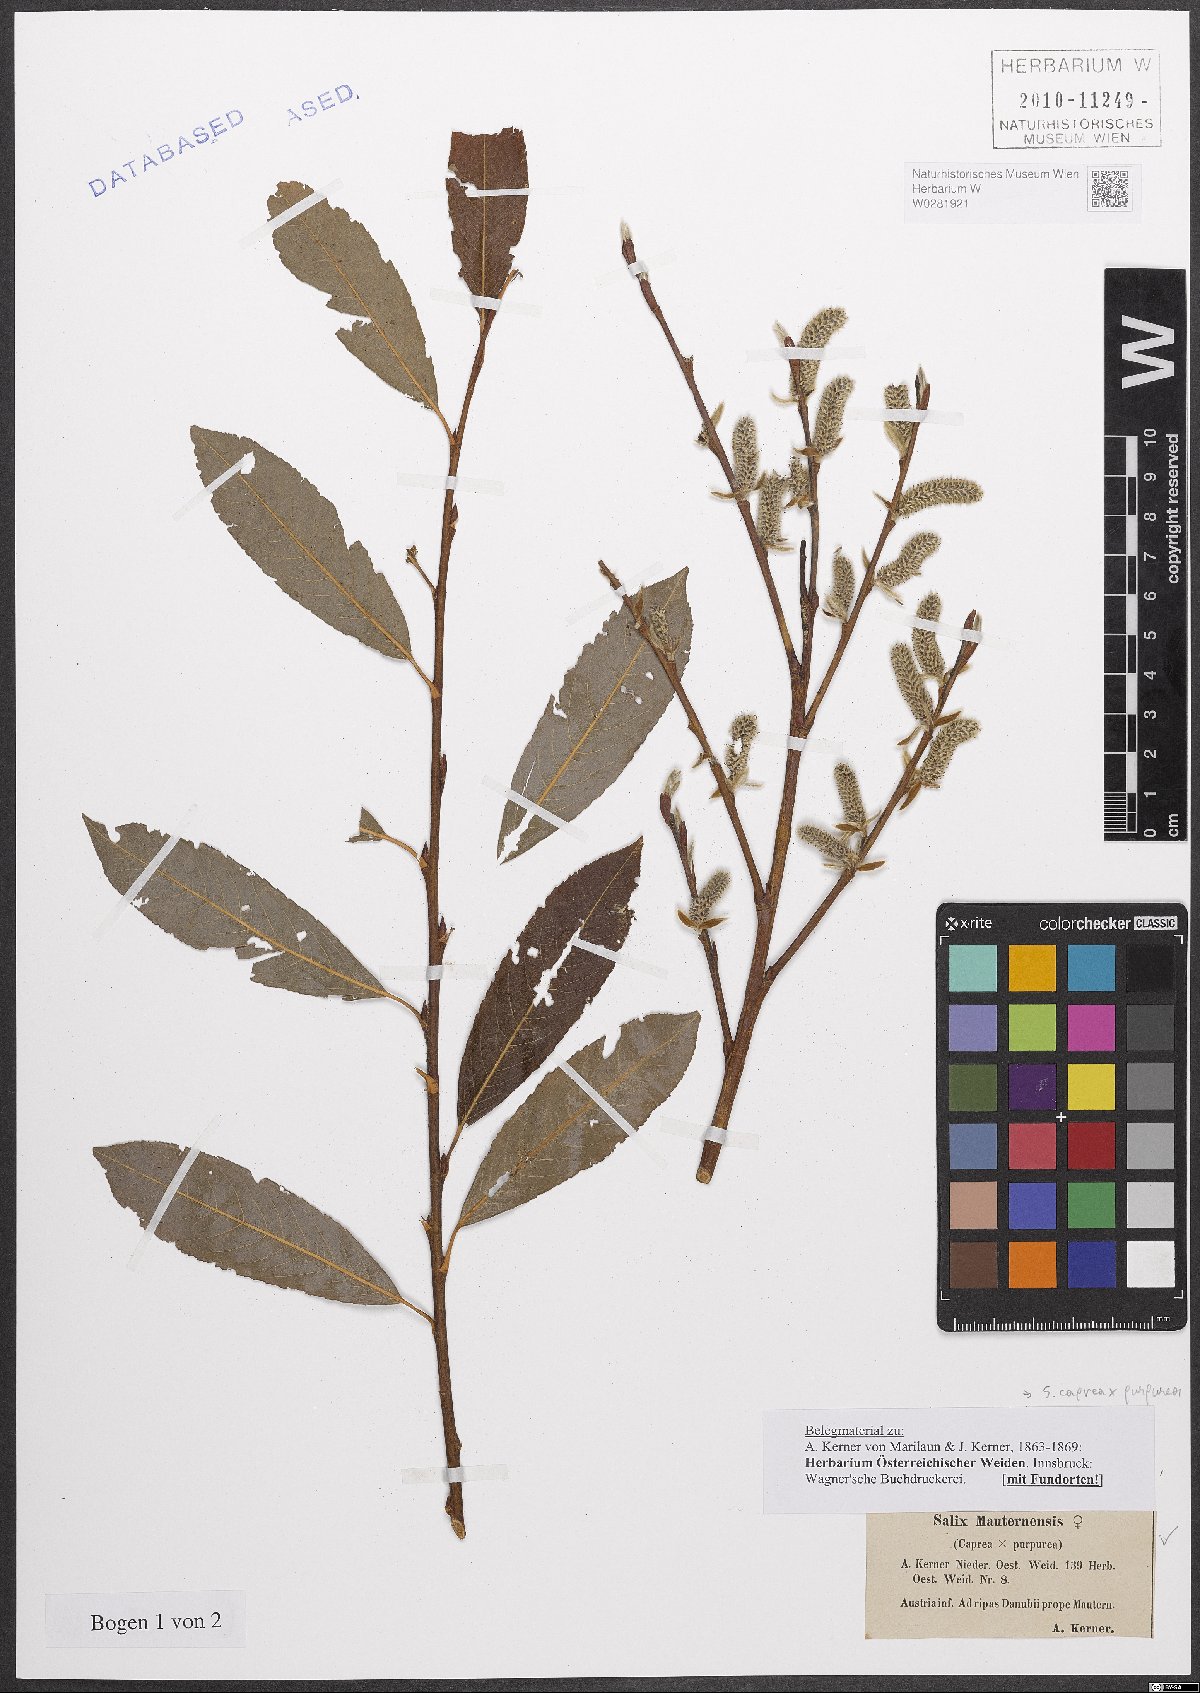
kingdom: Plantae
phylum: Tracheophyta
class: Magnoliopsida
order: Malpighiales
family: Salicaceae
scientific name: Salicaceae
